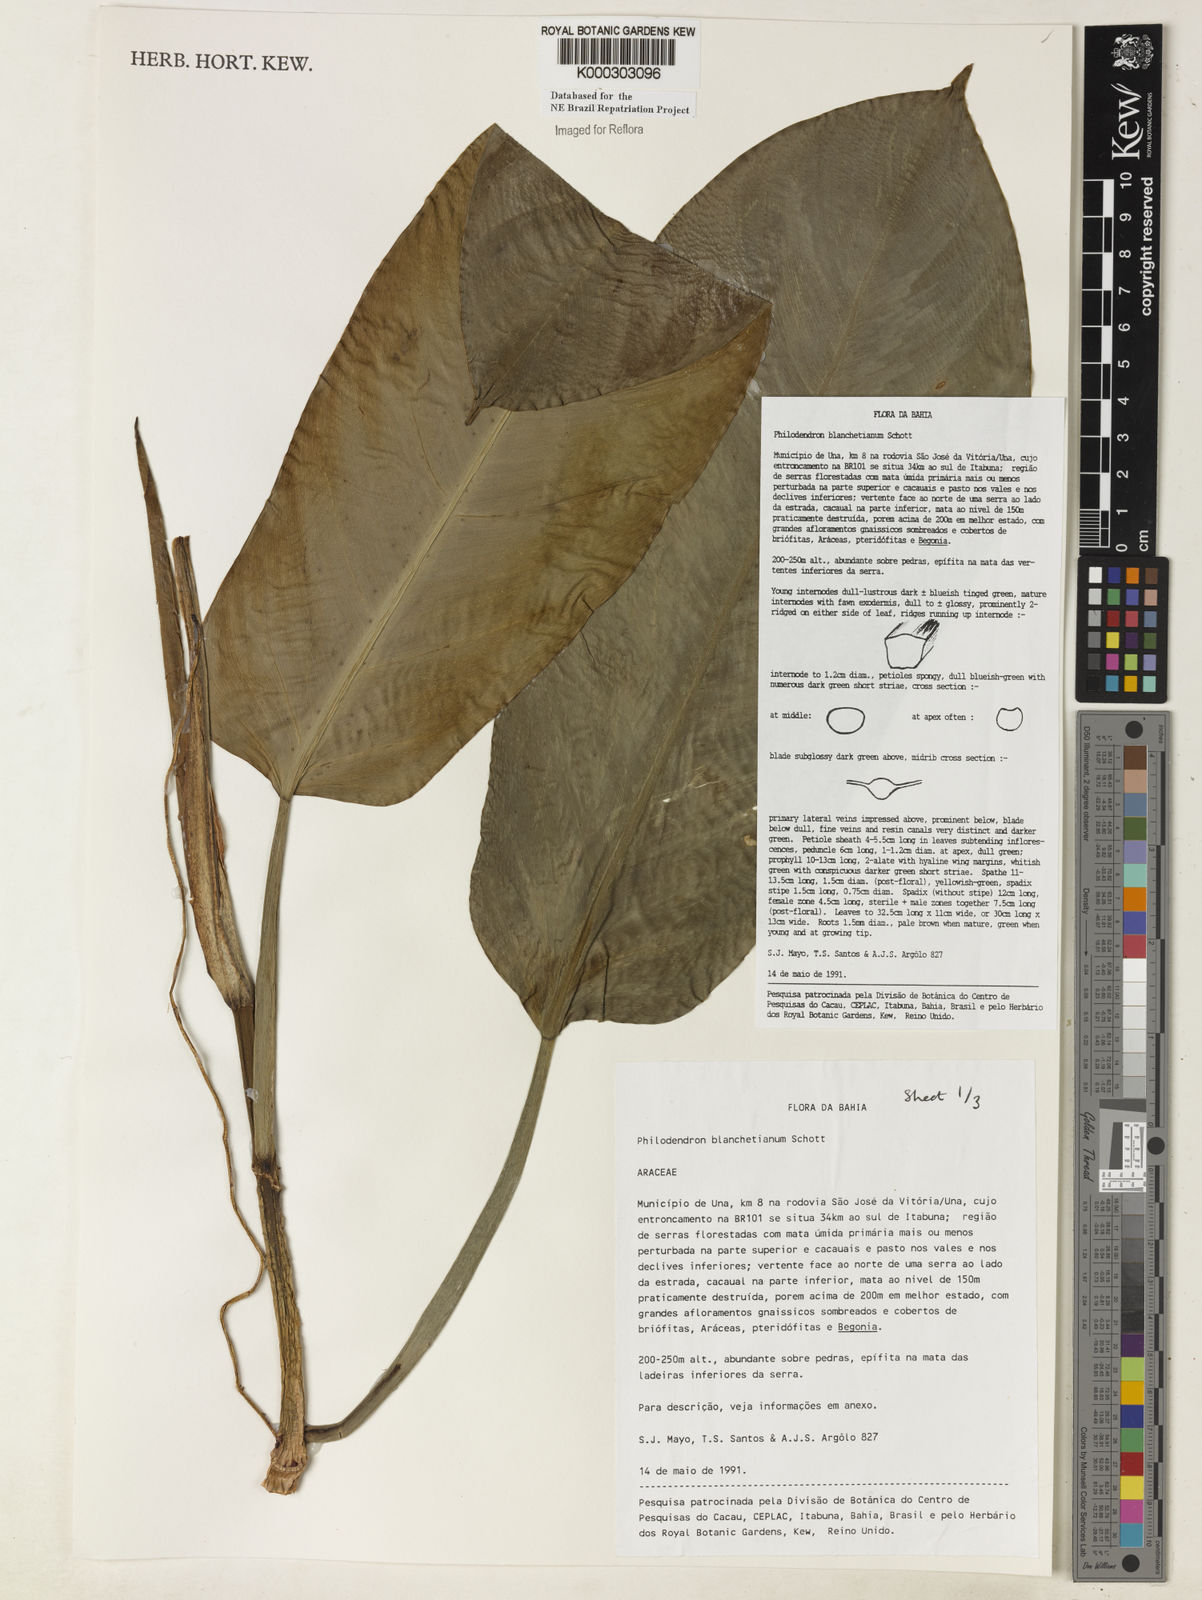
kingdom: Plantae
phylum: Tracheophyta
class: Liliopsida
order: Alismatales
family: Araceae
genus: Philodendron
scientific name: Philodendron blanchetianum
